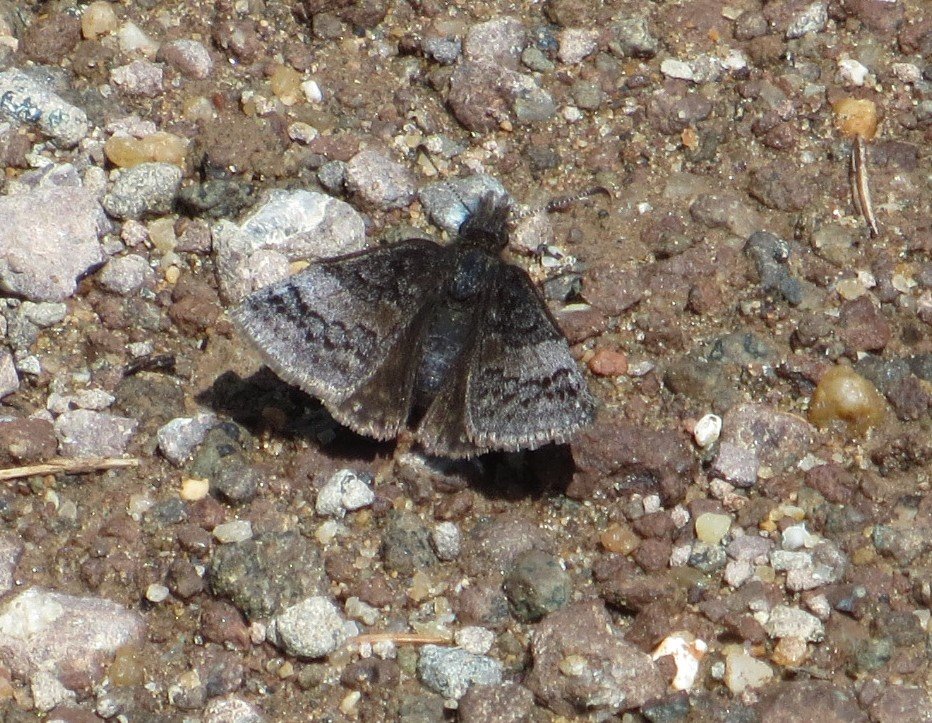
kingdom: Animalia
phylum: Arthropoda
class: Insecta
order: Lepidoptera
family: Hesperiidae
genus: Erynnis
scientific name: Erynnis icelus
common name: Dreamy Duskywing
